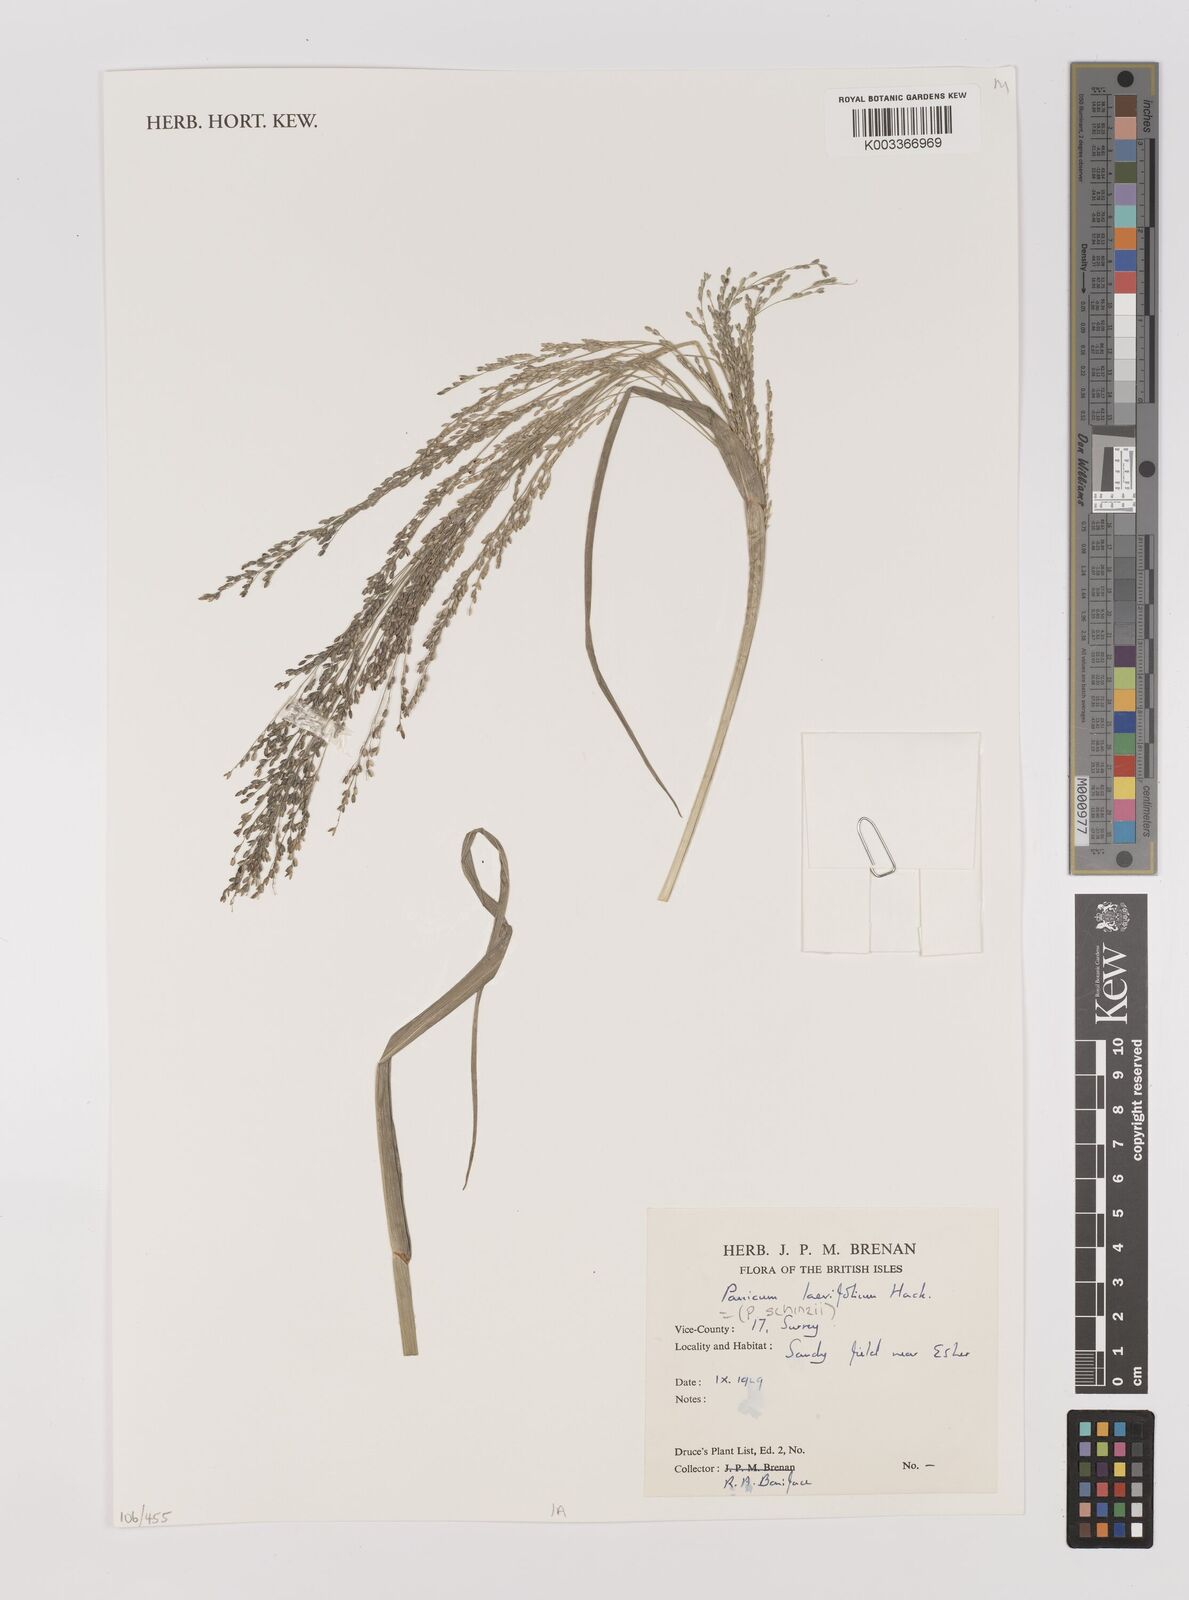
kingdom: Plantae
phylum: Tracheophyta
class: Liliopsida
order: Poales
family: Poaceae
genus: Panicum
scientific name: Panicum schinzii
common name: Sweet grass
